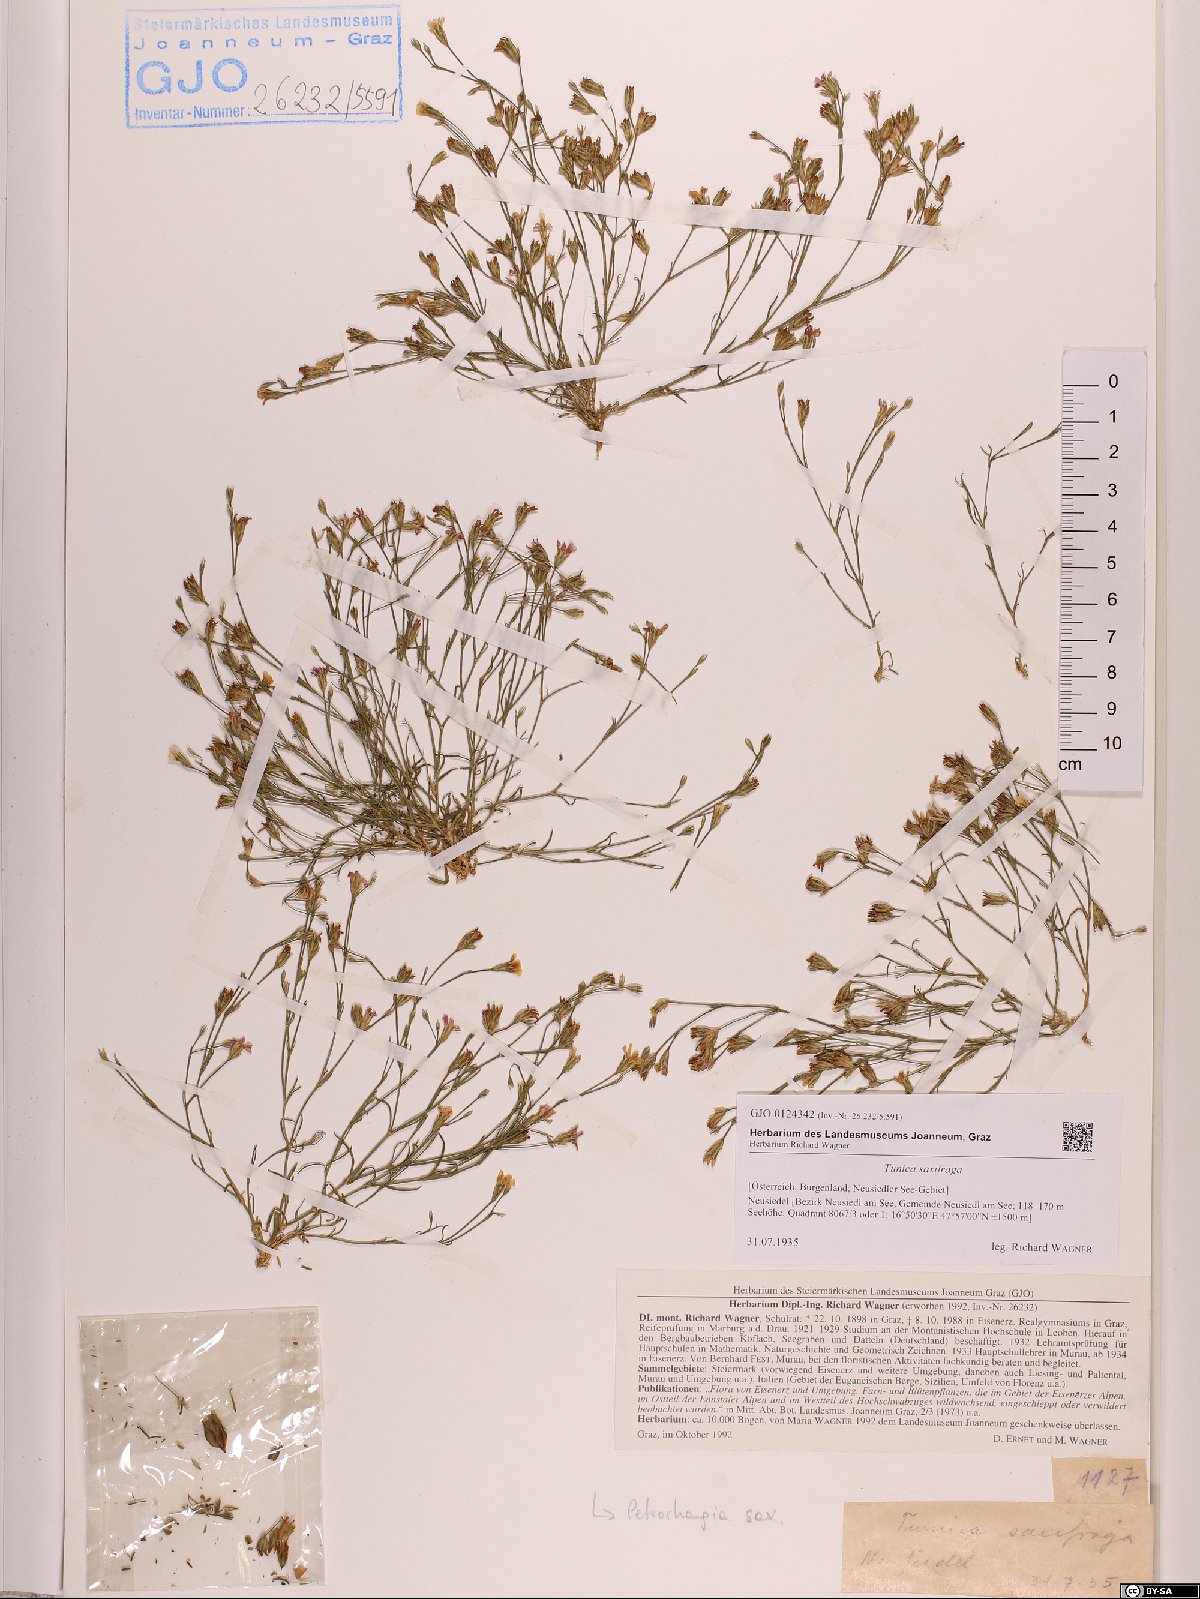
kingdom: Plantae
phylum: Tracheophyta
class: Magnoliopsida
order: Caryophyllales
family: Caryophyllaceae
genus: Petrorhagia
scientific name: Petrorhagia saxifraga
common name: Tunicflower
